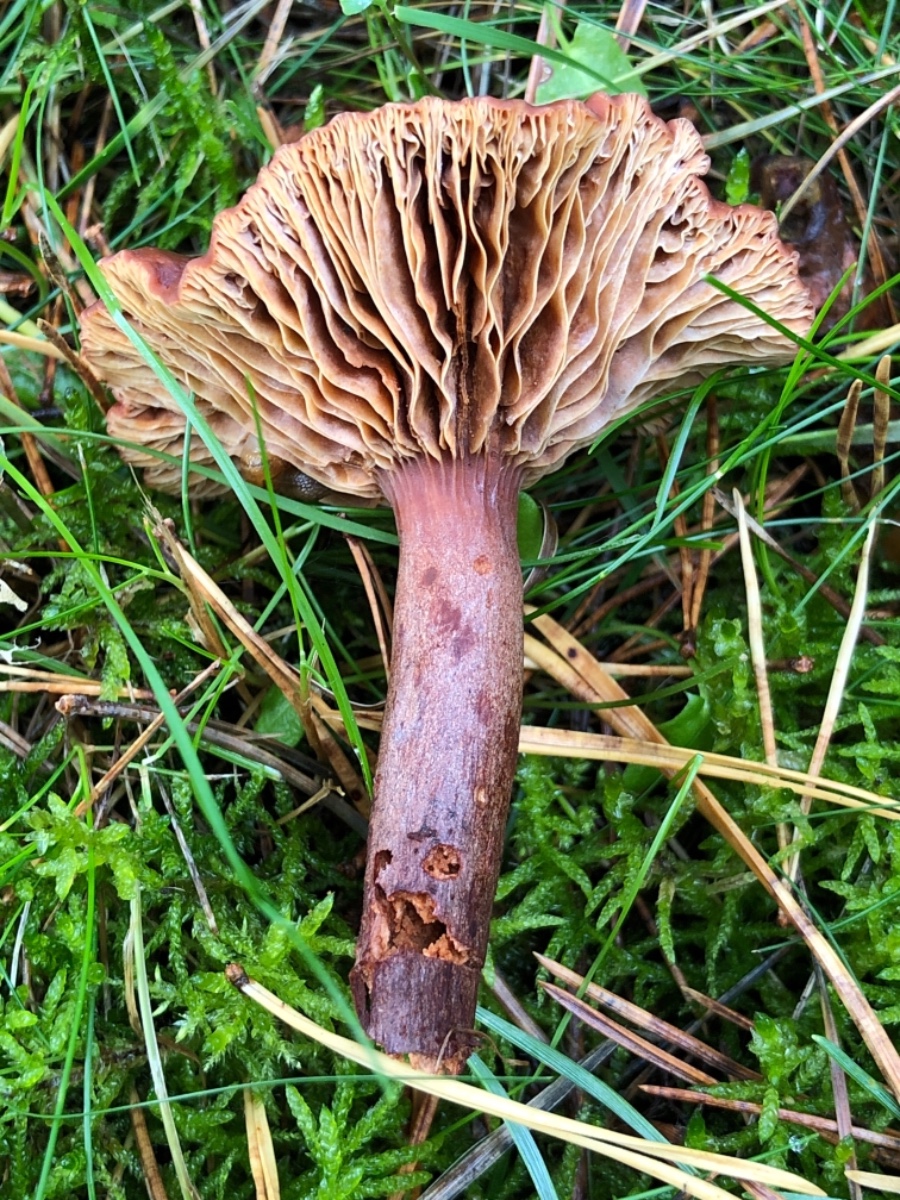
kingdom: Fungi
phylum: Basidiomycota
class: Agaricomycetes
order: Russulales
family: Russulaceae
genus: Lactarius
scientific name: Lactarius
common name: mælkehat
